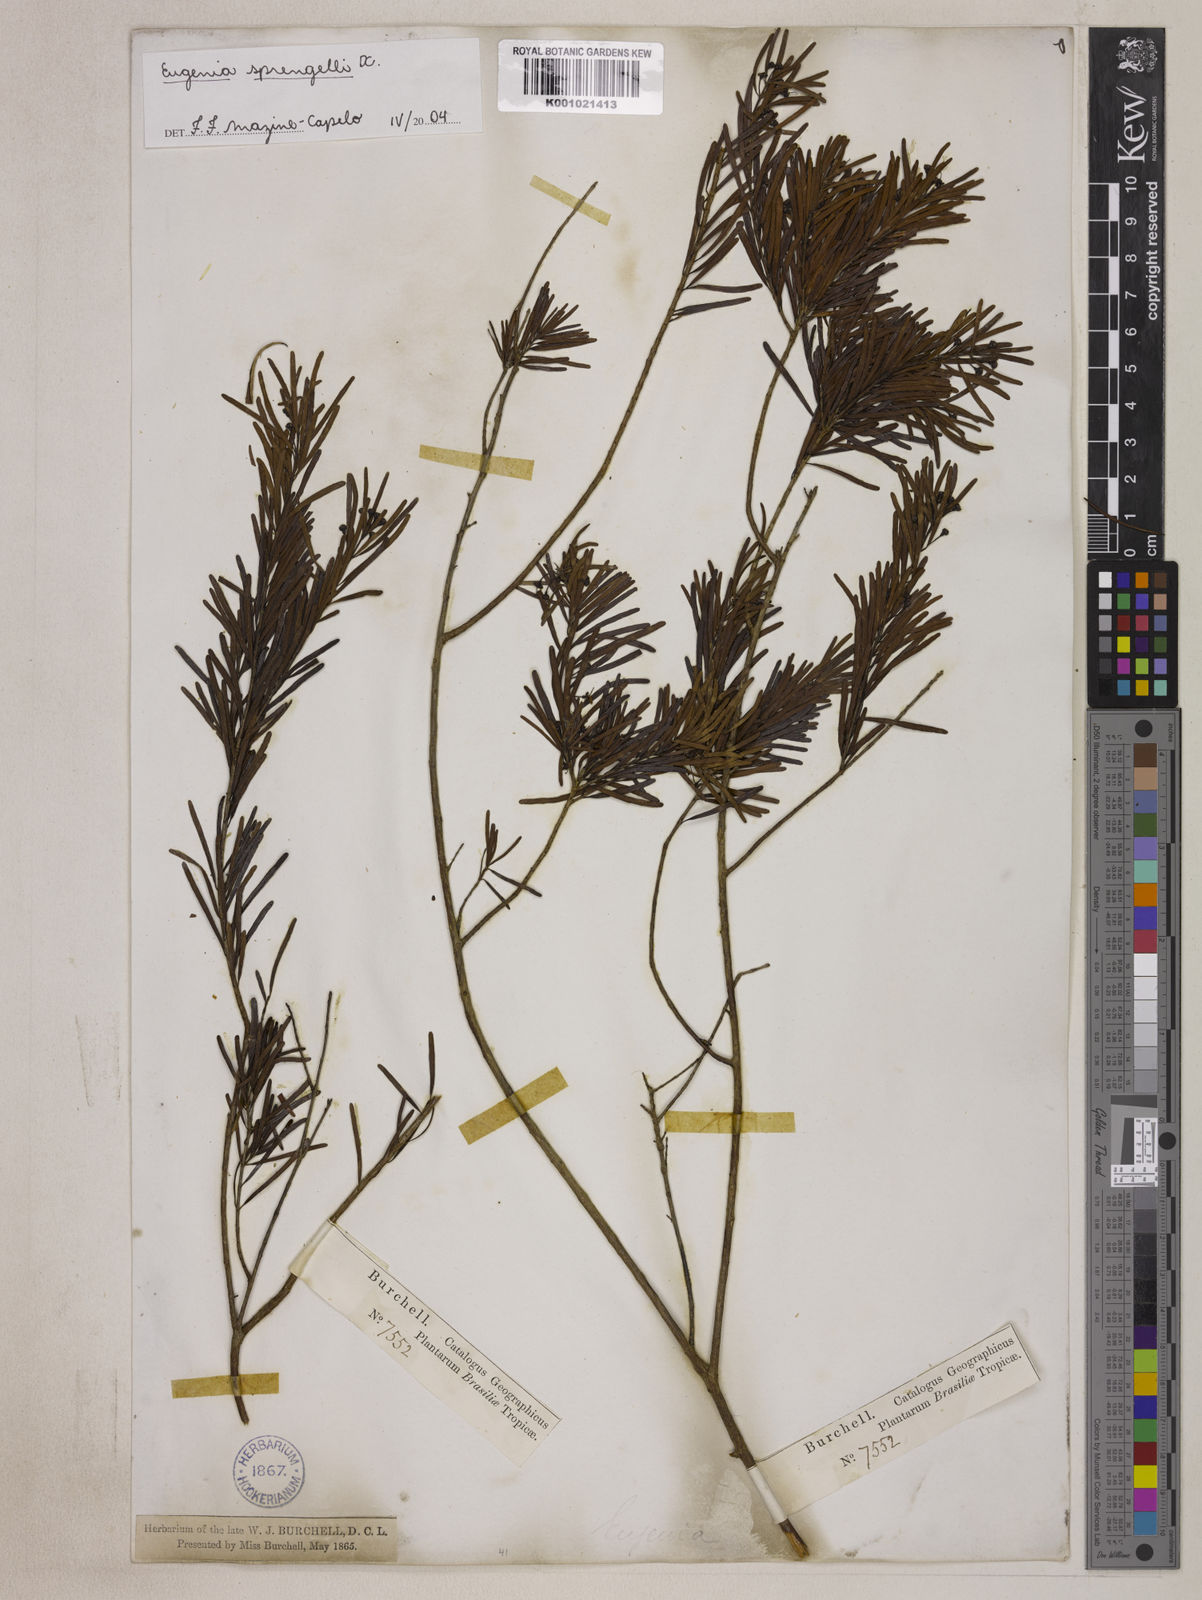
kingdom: Plantae
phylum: Tracheophyta
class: Magnoliopsida
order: Myrtales
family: Myrtaceae
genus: Eugenia
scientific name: Eugenia sprengelii
